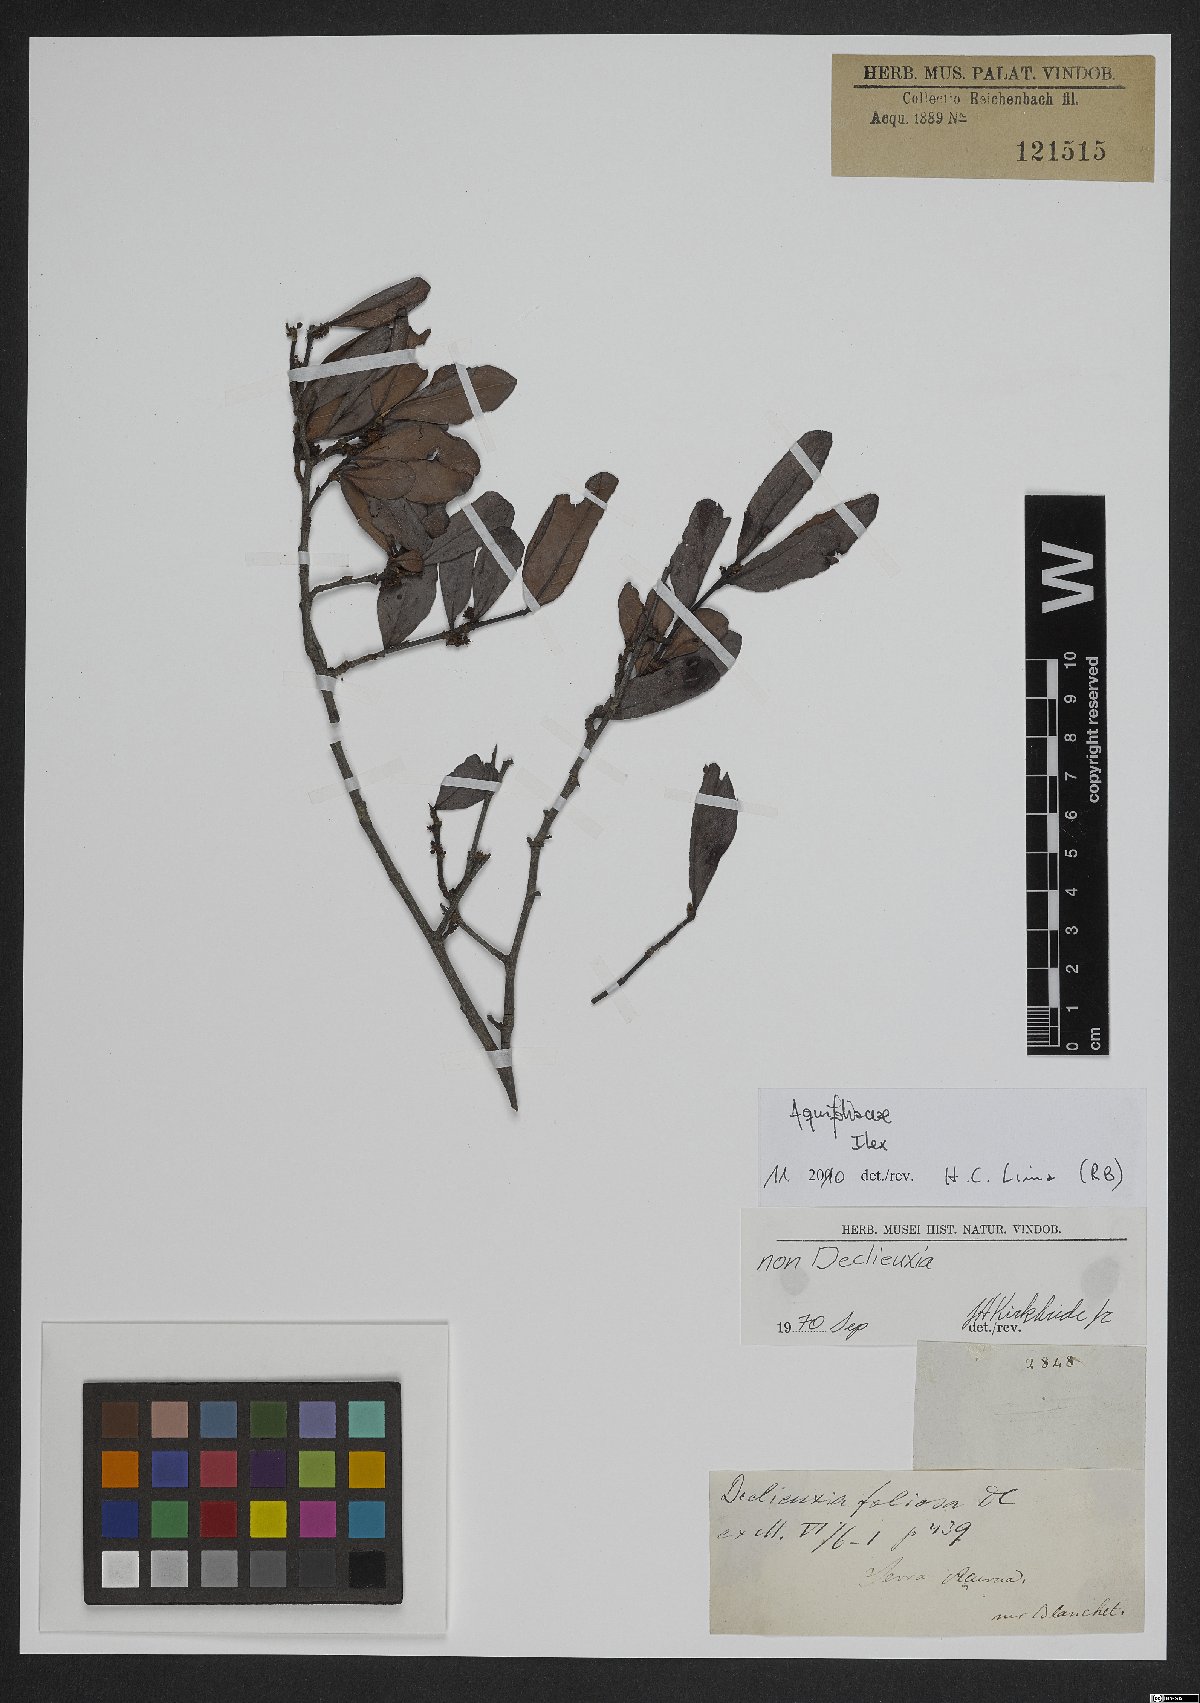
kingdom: Plantae
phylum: Tracheophyta
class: Magnoliopsida
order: Aquifoliales
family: Aquifoliaceae
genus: Ilex
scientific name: Ilex
